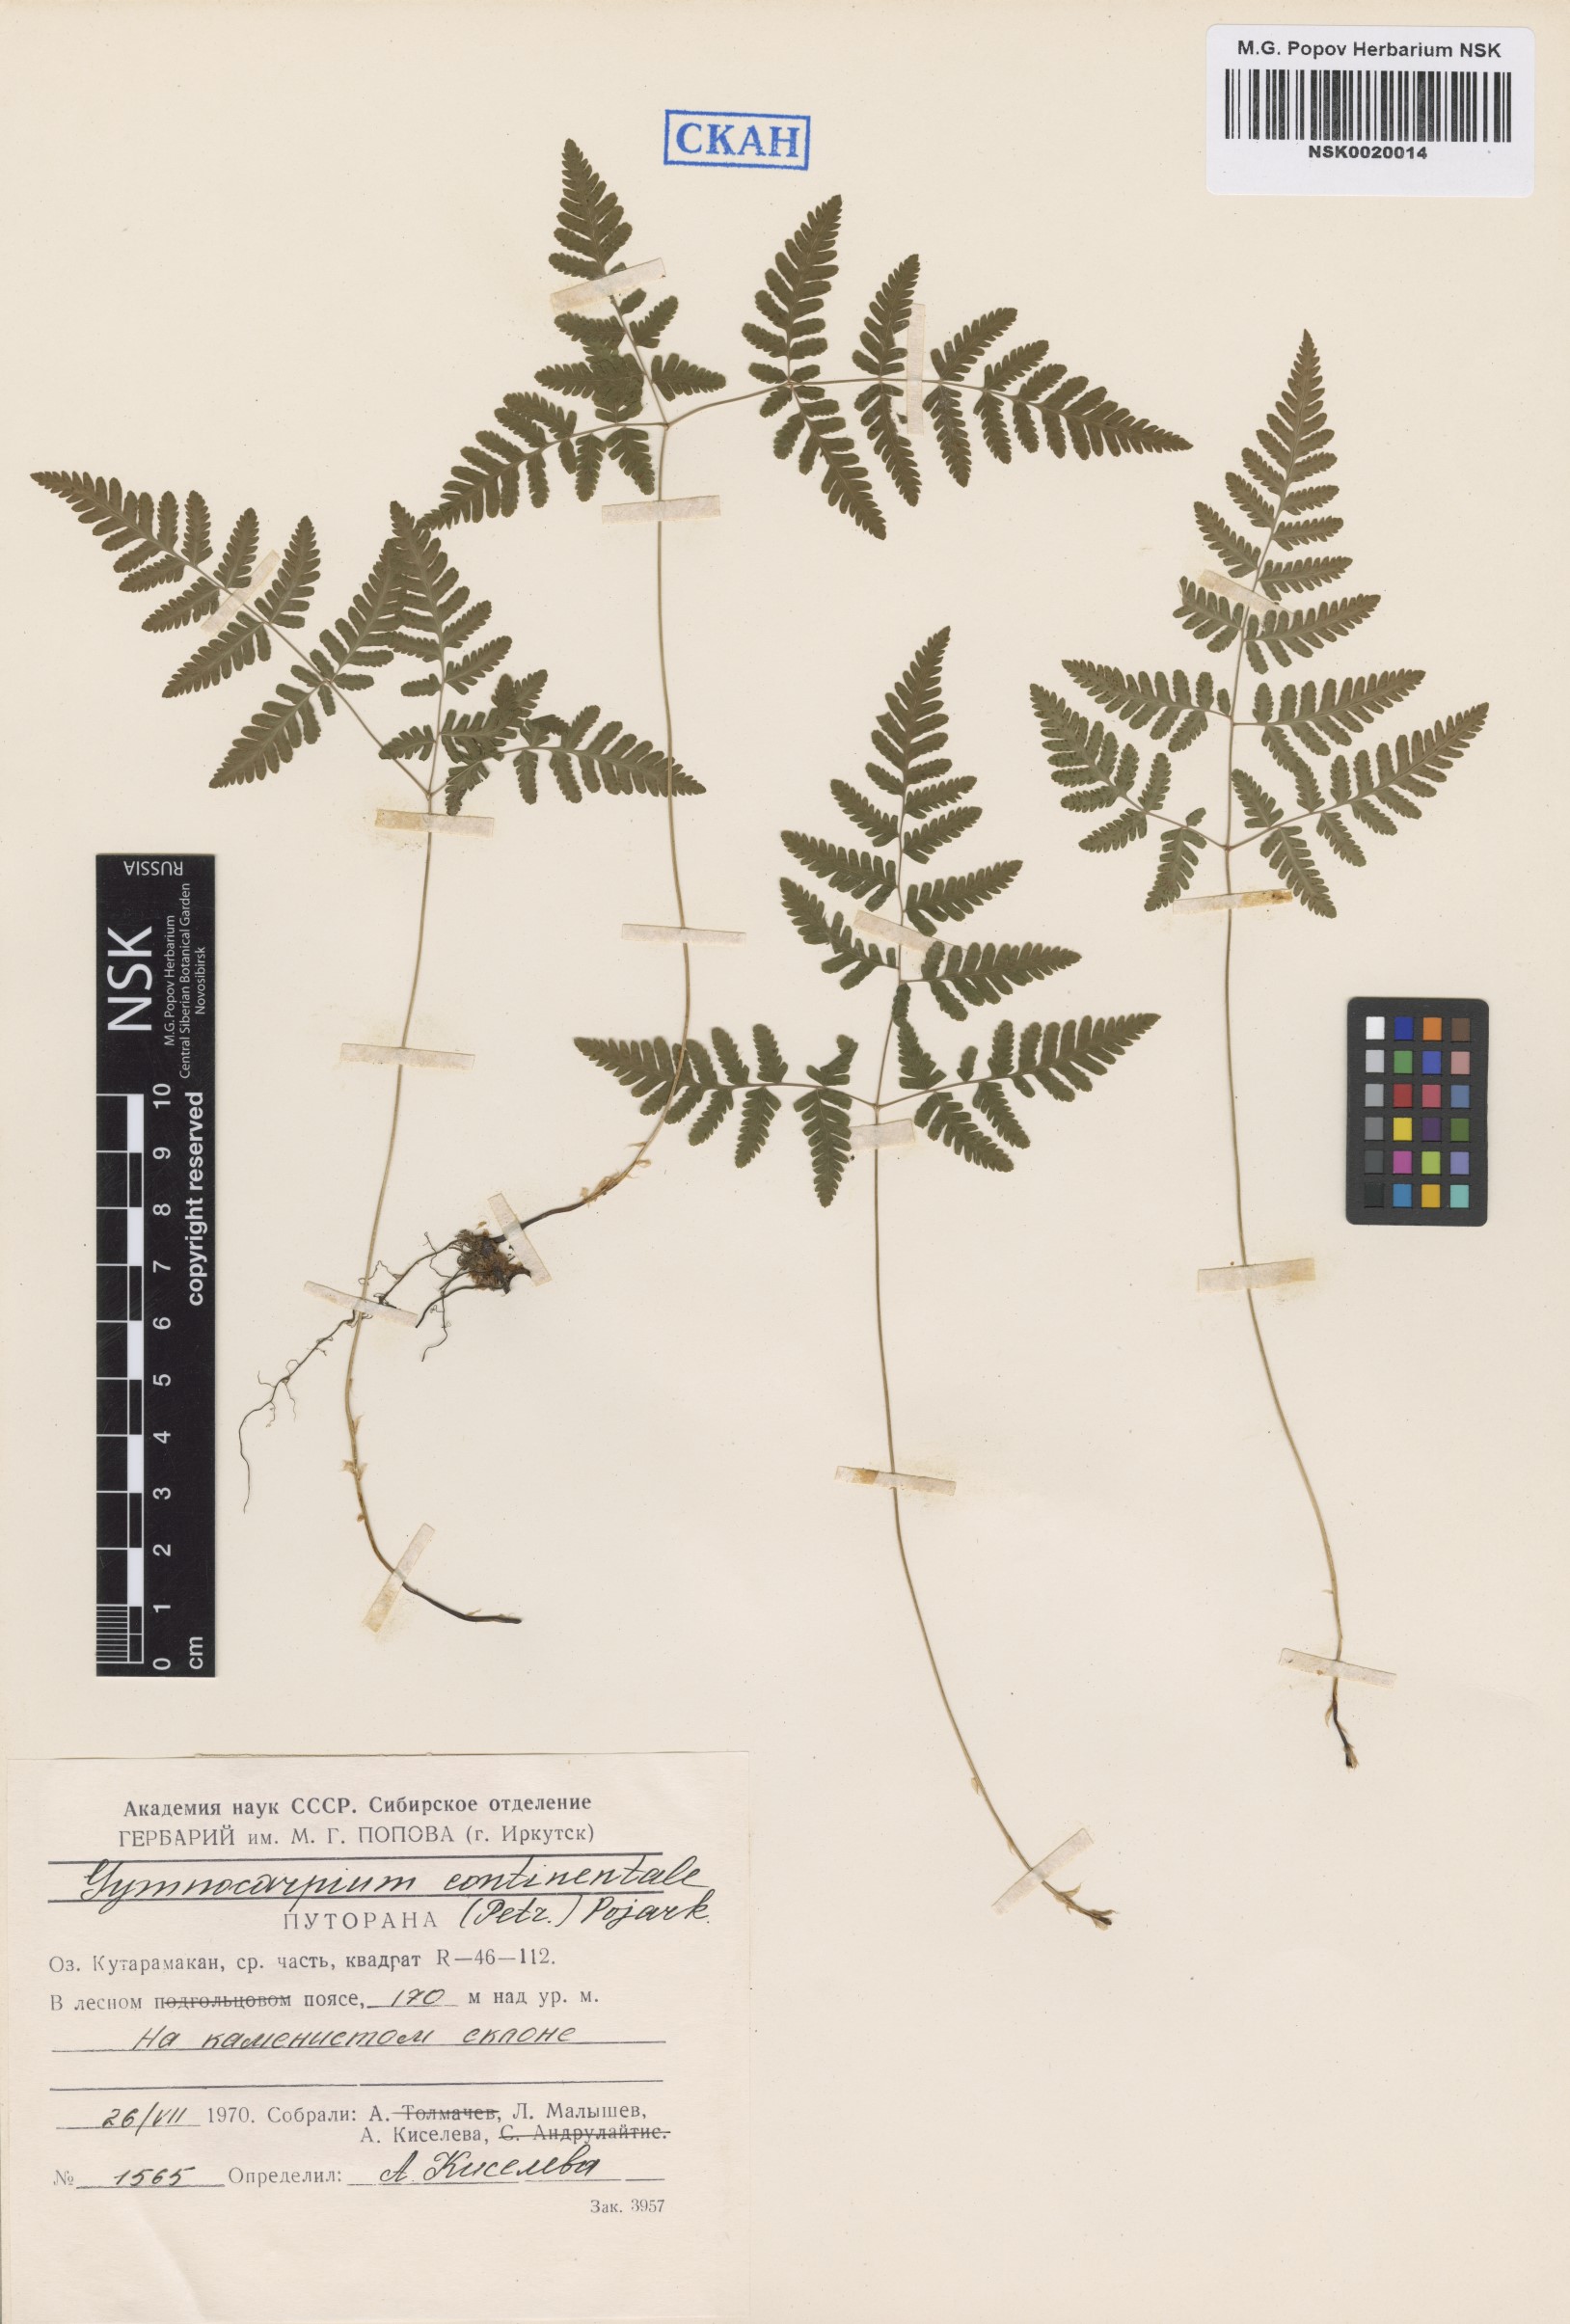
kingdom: Plantae
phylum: Tracheophyta
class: Polypodiopsida
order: Polypodiales
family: Cystopteridaceae
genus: Gymnocarpium
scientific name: Gymnocarpium continentale
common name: Asian oak fern
